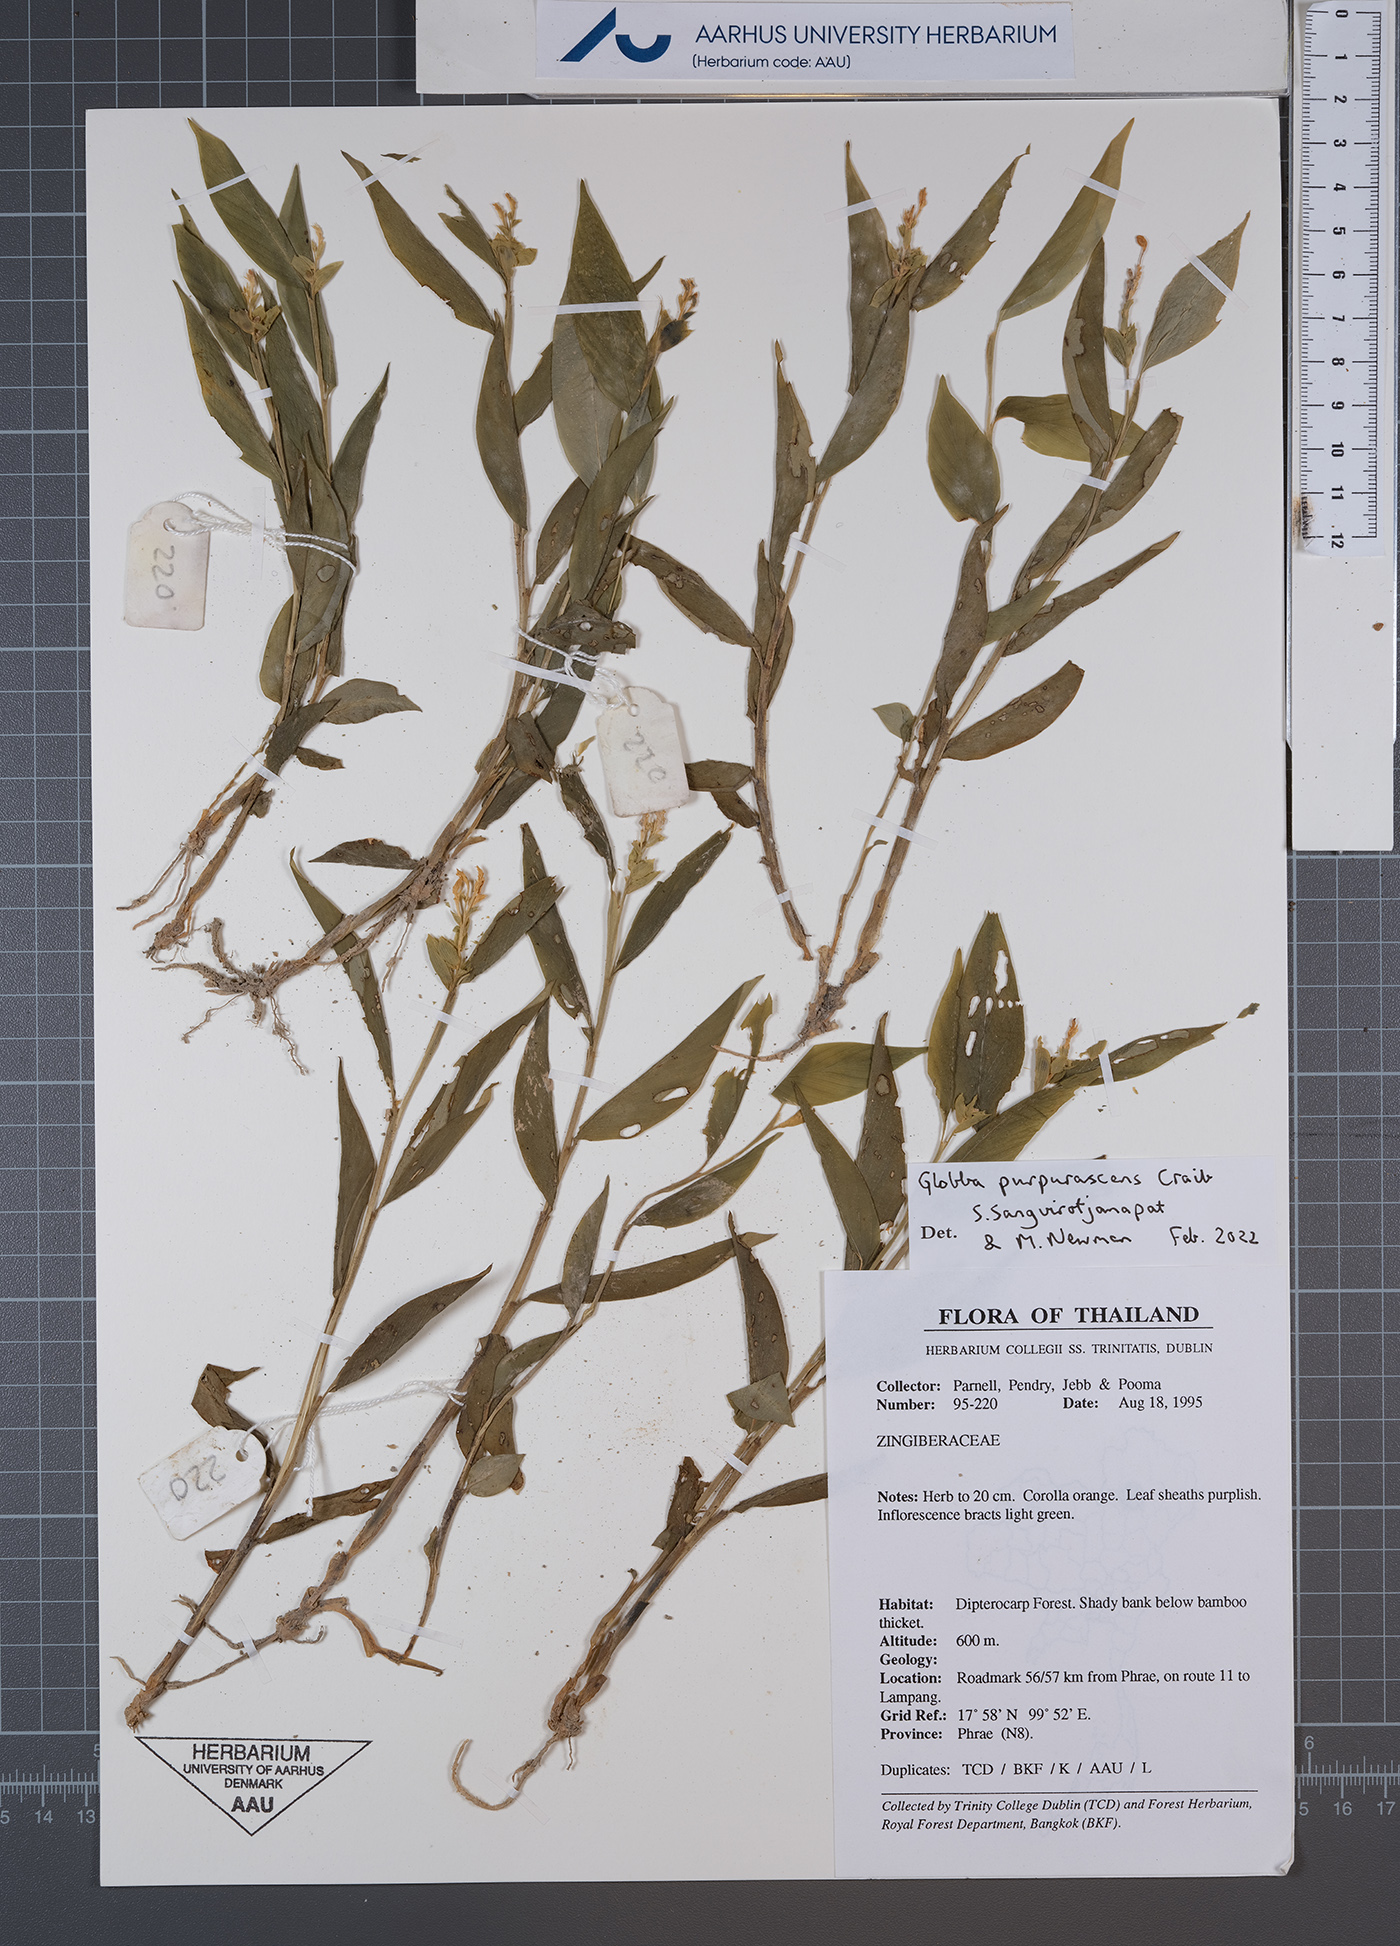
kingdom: Plantae
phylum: Tracheophyta
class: Liliopsida
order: Zingiberales
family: Zingiberaceae
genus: Globba
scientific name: Globba purpurascens
